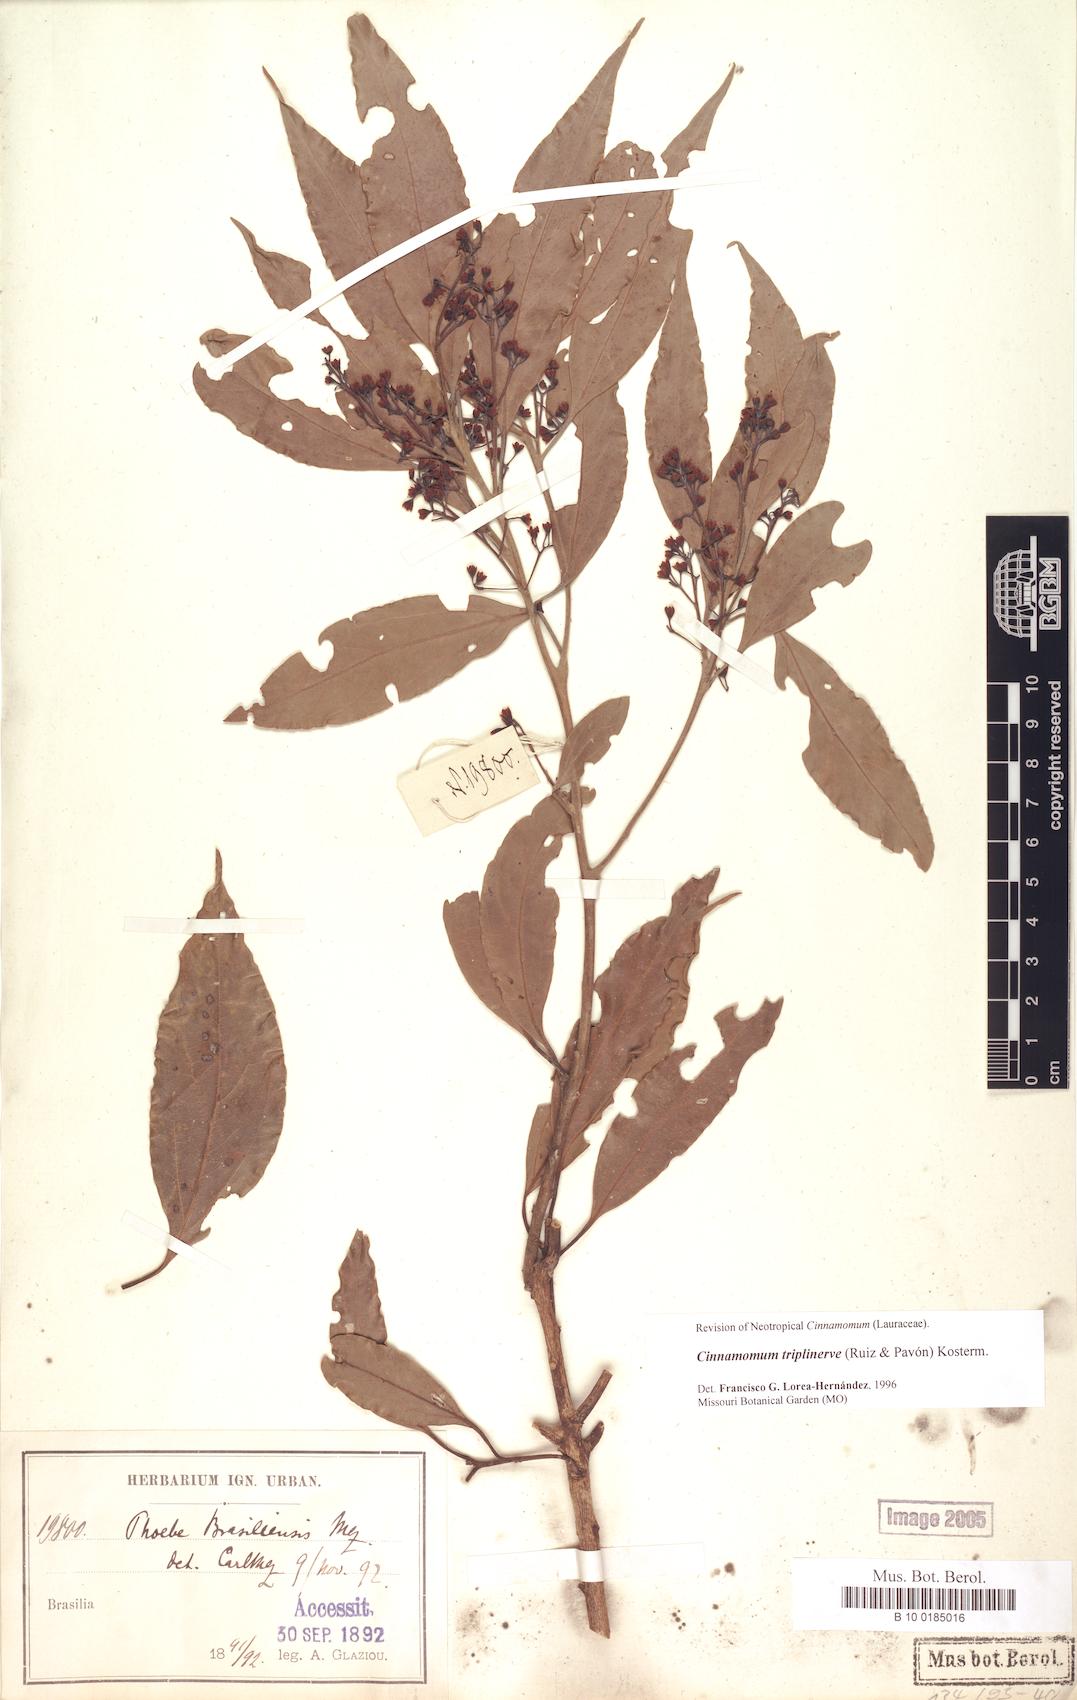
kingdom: Plantae
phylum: Tracheophyta
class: Magnoliopsida
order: Laurales
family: Lauraceae
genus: Aiouea
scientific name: Aiouea montana
